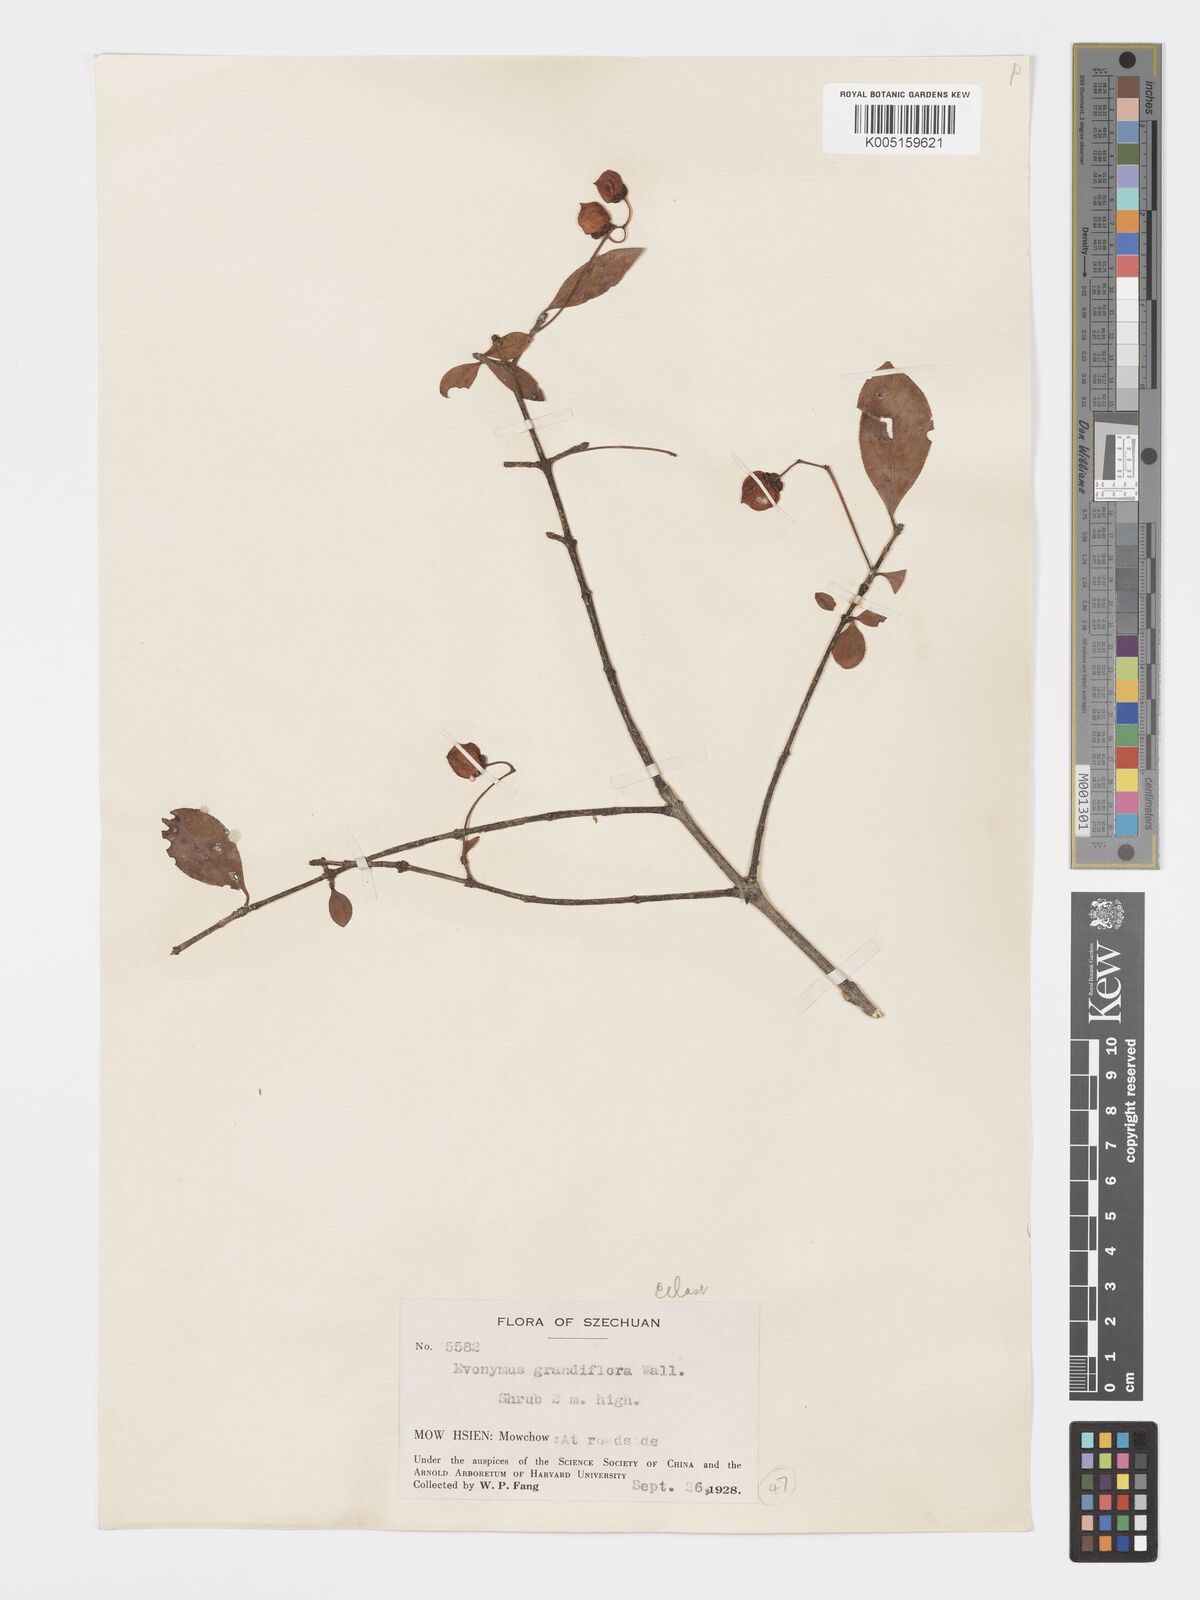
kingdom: Plantae
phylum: Tracheophyta
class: Magnoliopsida
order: Celastrales
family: Celastraceae
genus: Euonymus
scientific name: Euonymus grandiflorus
